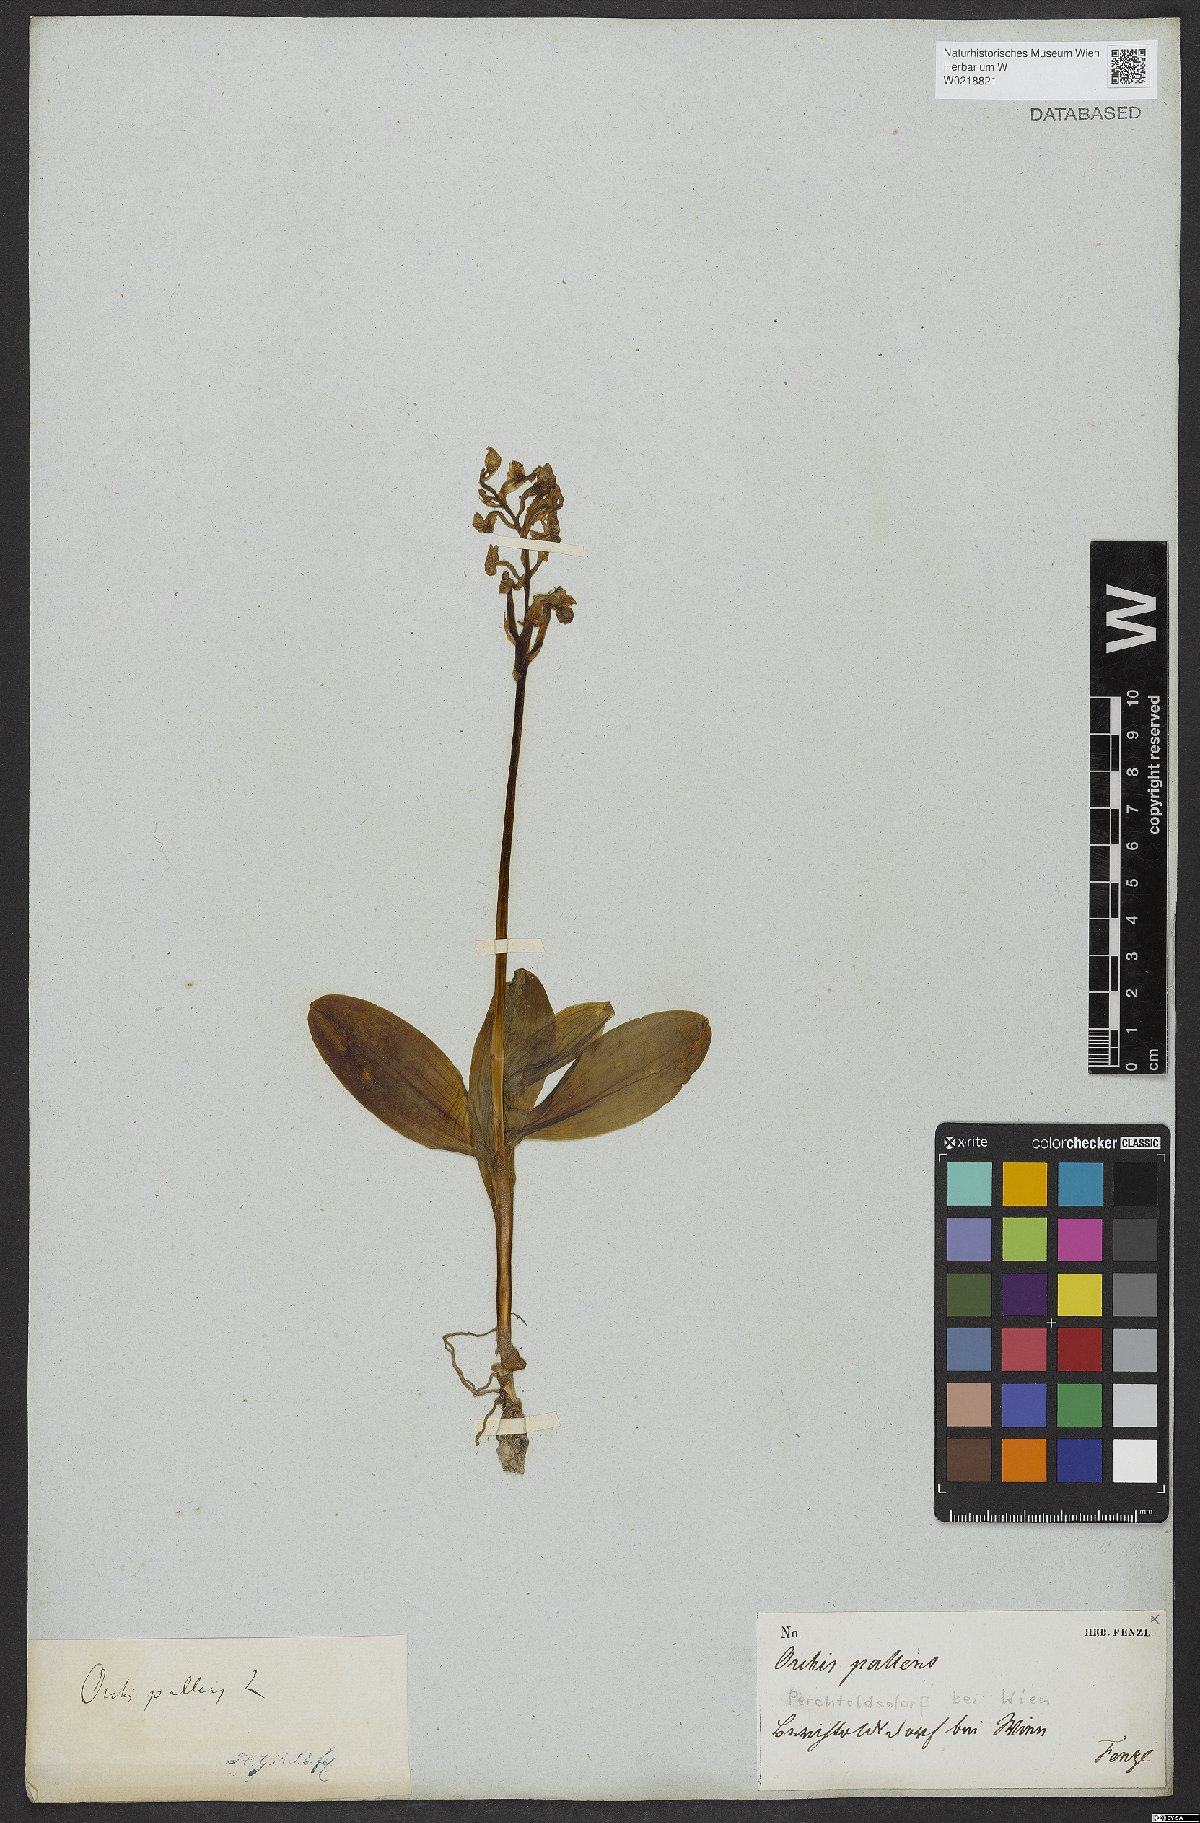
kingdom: Plantae
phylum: Tracheophyta
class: Liliopsida
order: Asparagales
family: Orchidaceae
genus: Orchis
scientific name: Orchis pallens
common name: Pale-flowered orchid
